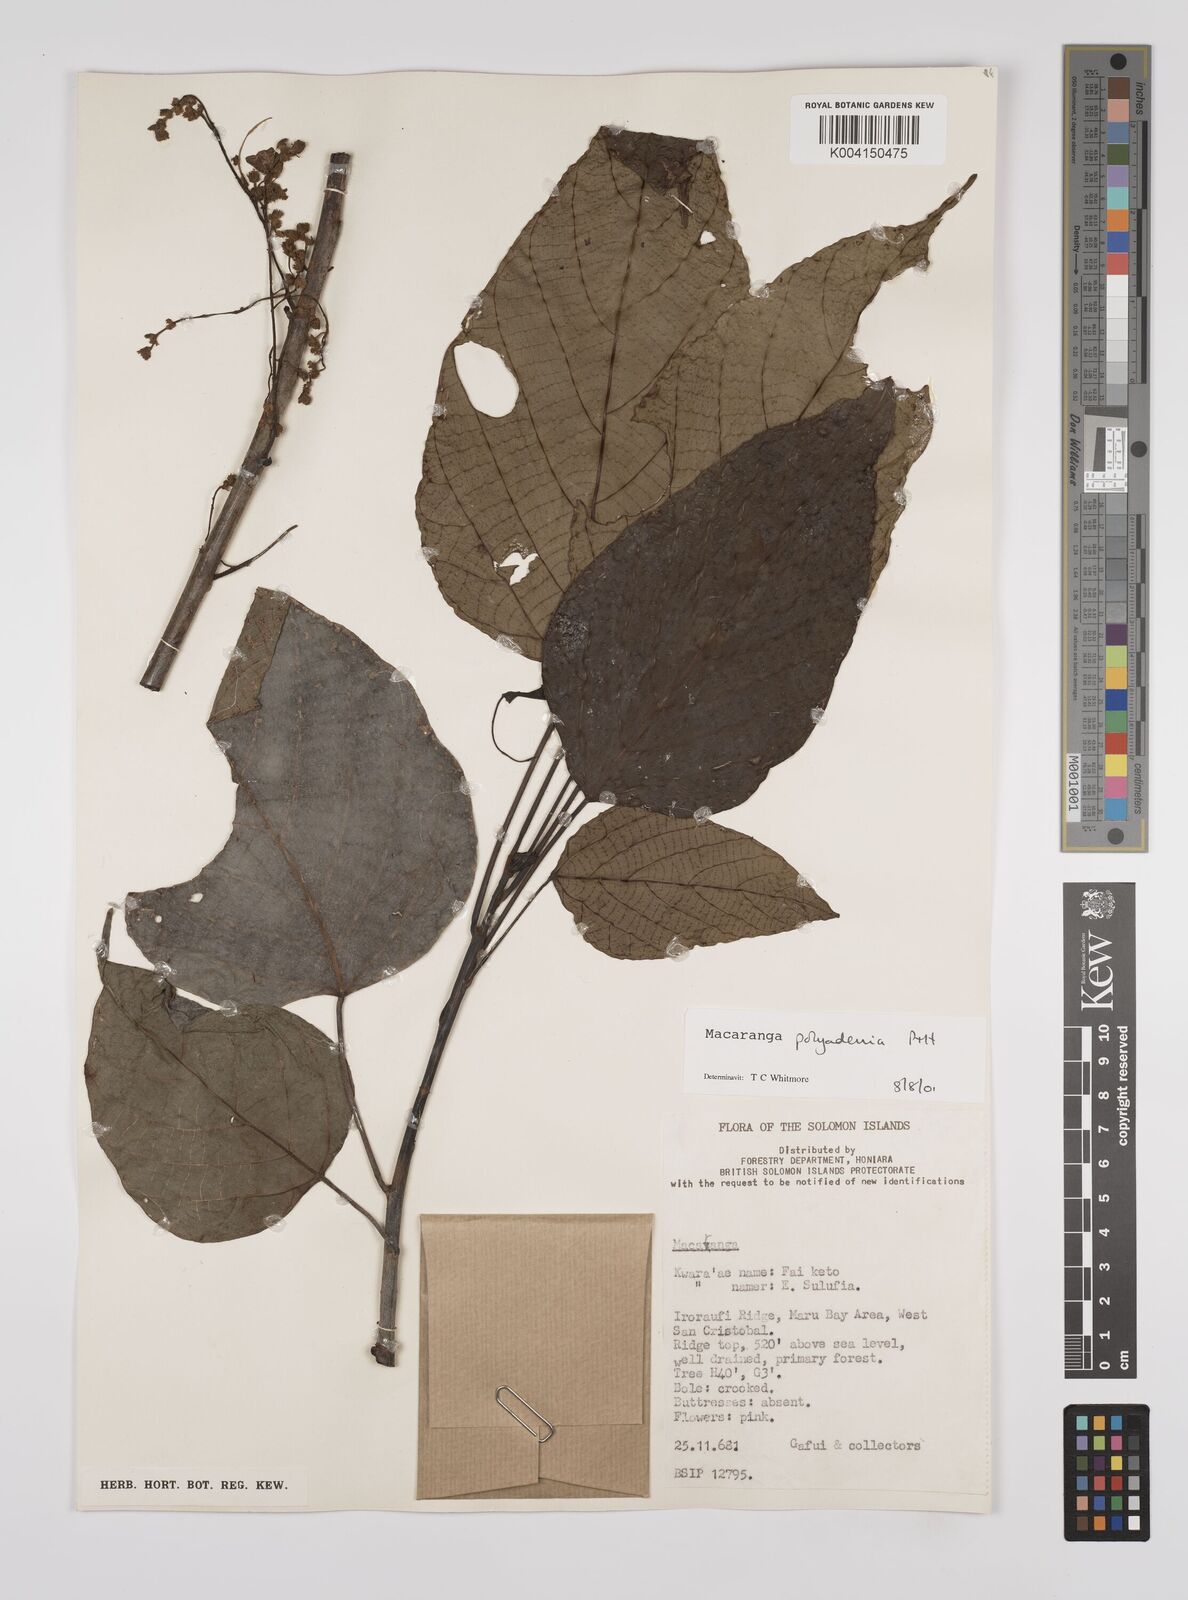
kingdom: Plantae
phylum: Tracheophyta
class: Magnoliopsida
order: Malpighiales
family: Euphorbiaceae
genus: Macaranga
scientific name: Macaranga polyadenia
